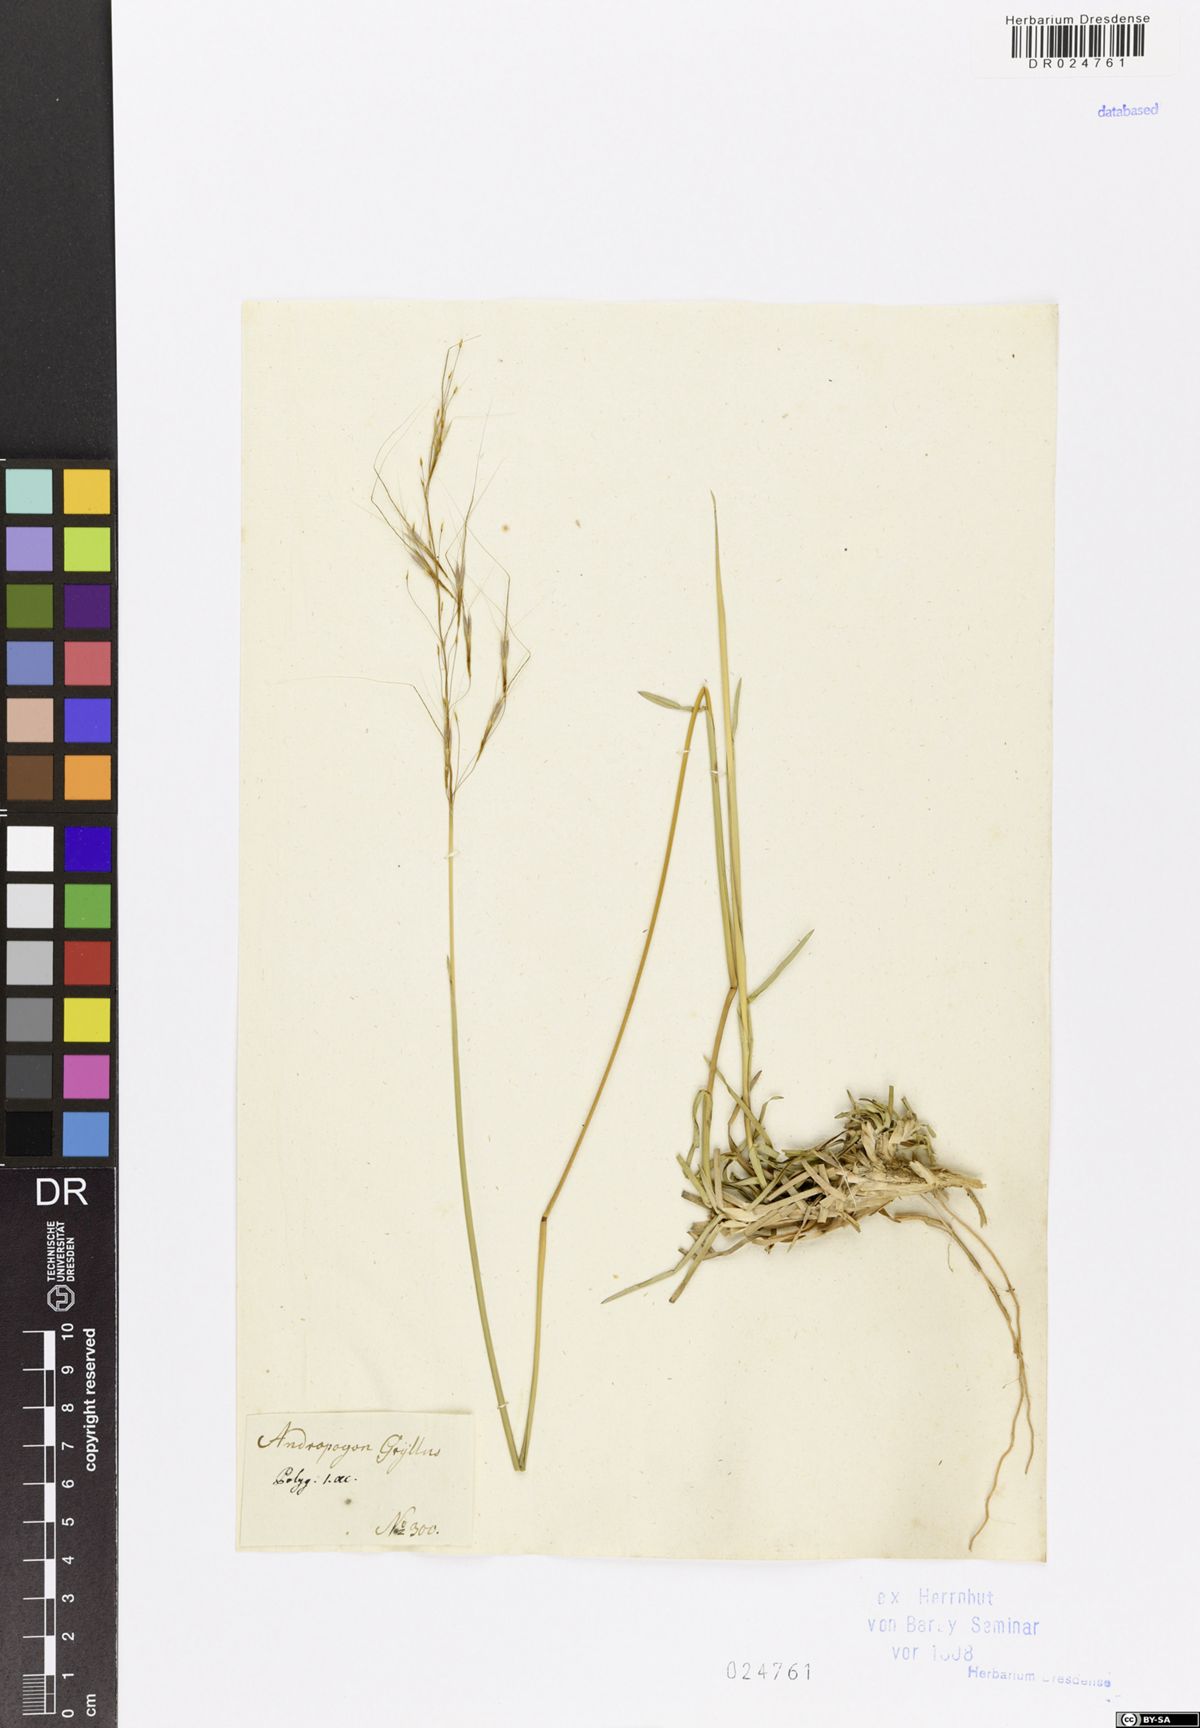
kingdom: Plantae
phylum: Tracheophyta
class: Liliopsida
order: Poales
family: Poaceae
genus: Chrysopogon
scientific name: Chrysopogon gryllus
